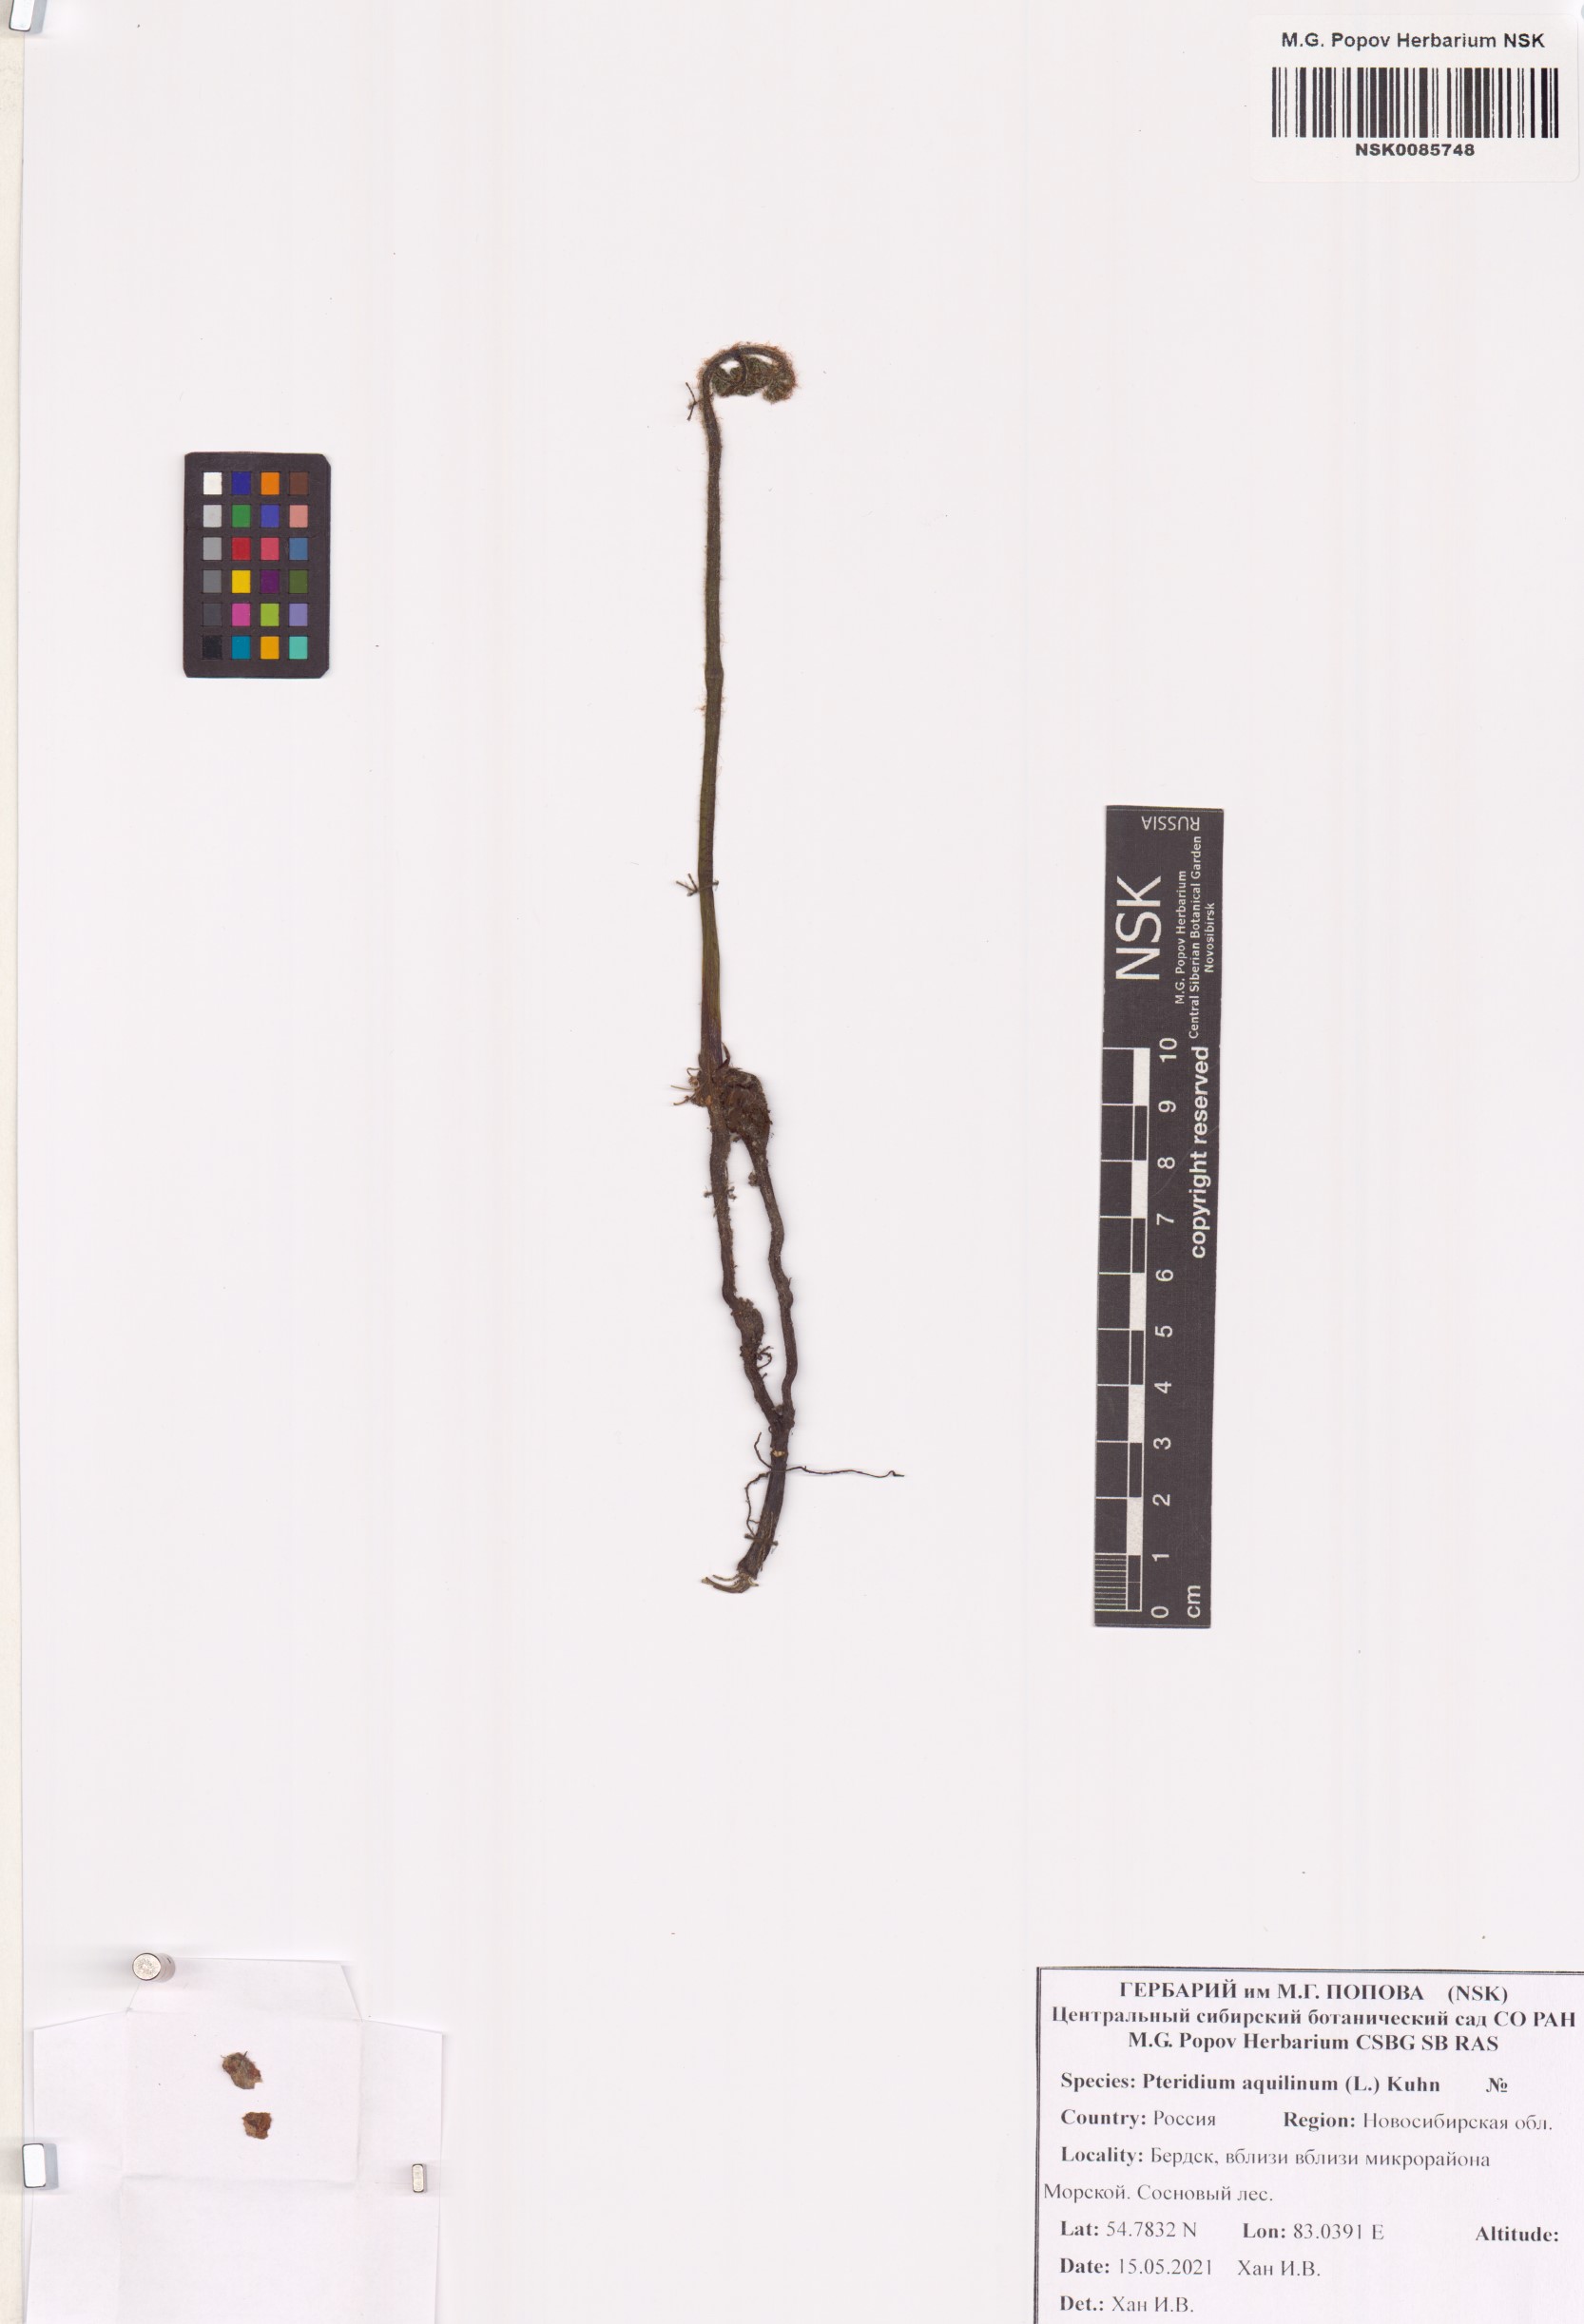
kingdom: Plantae
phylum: Tracheophyta
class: Polypodiopsida
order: Polypodiales
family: Dennstaedtiaceae
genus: Pteridium
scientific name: Pteridium aquilinum
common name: Bracken
